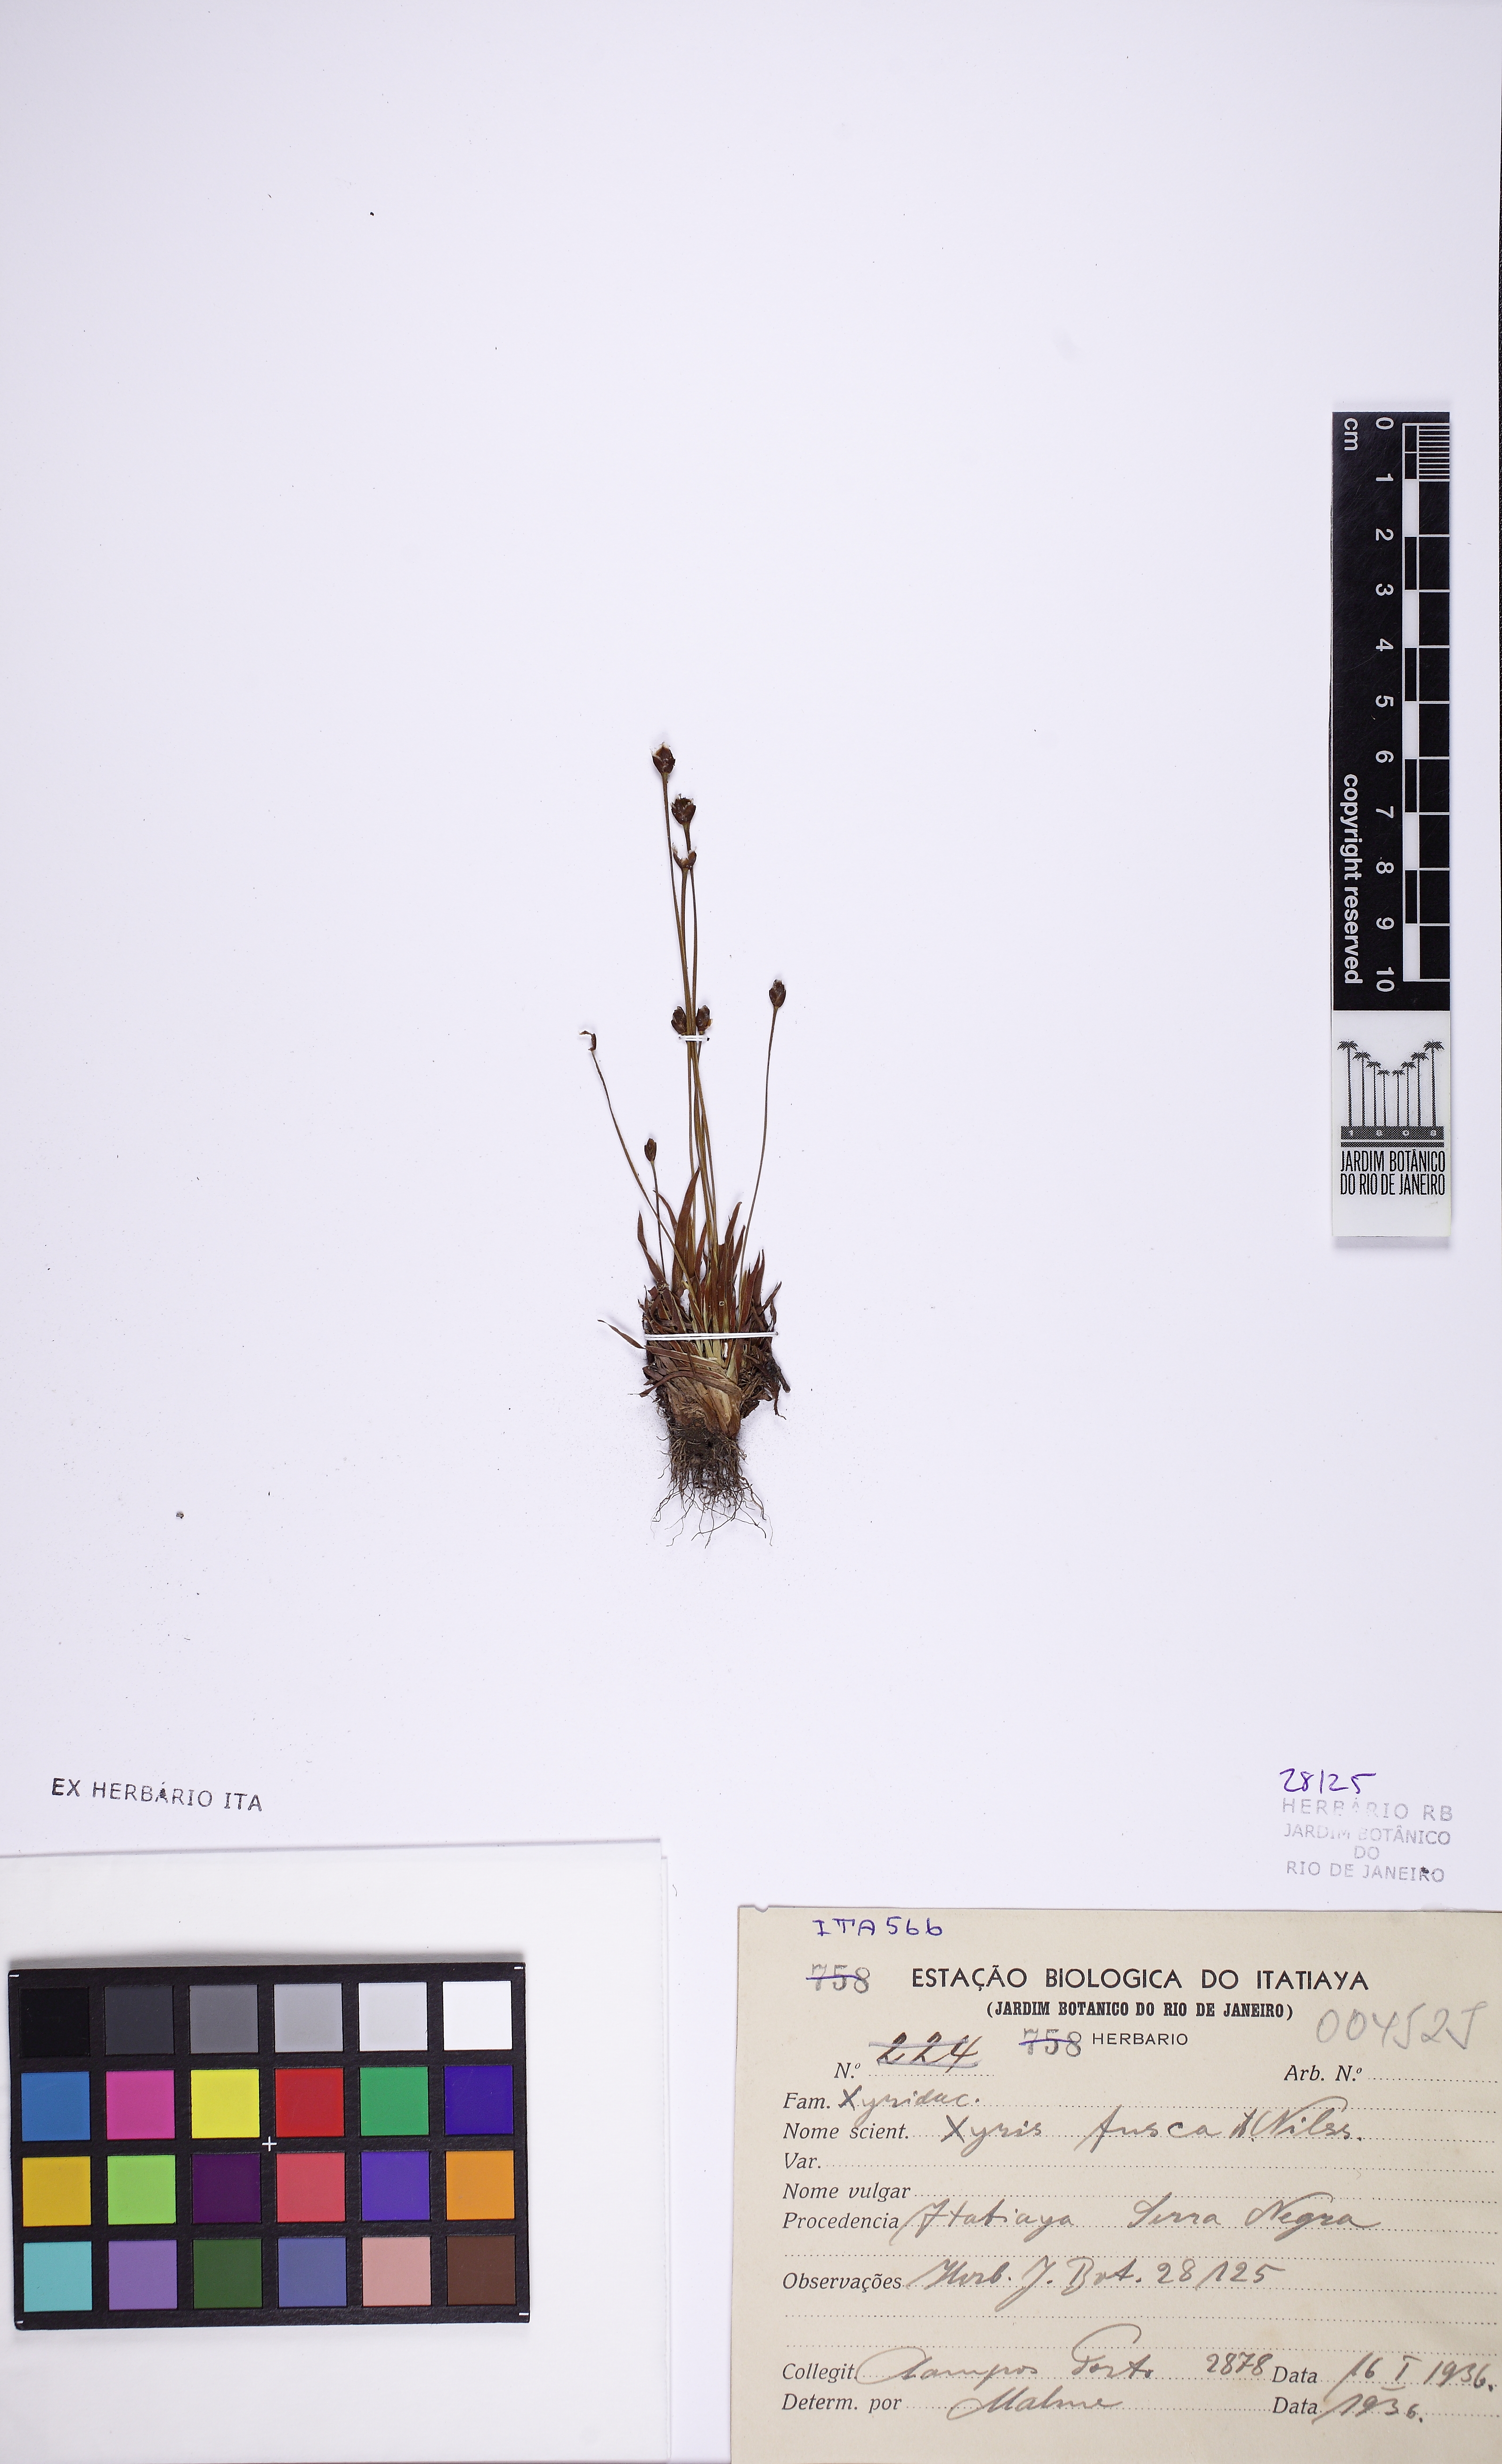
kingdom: Plantae
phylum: Tracheophyta
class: Liliopsida
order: Poales
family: Xyridaceae
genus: Xyris
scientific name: Xyris fusca
